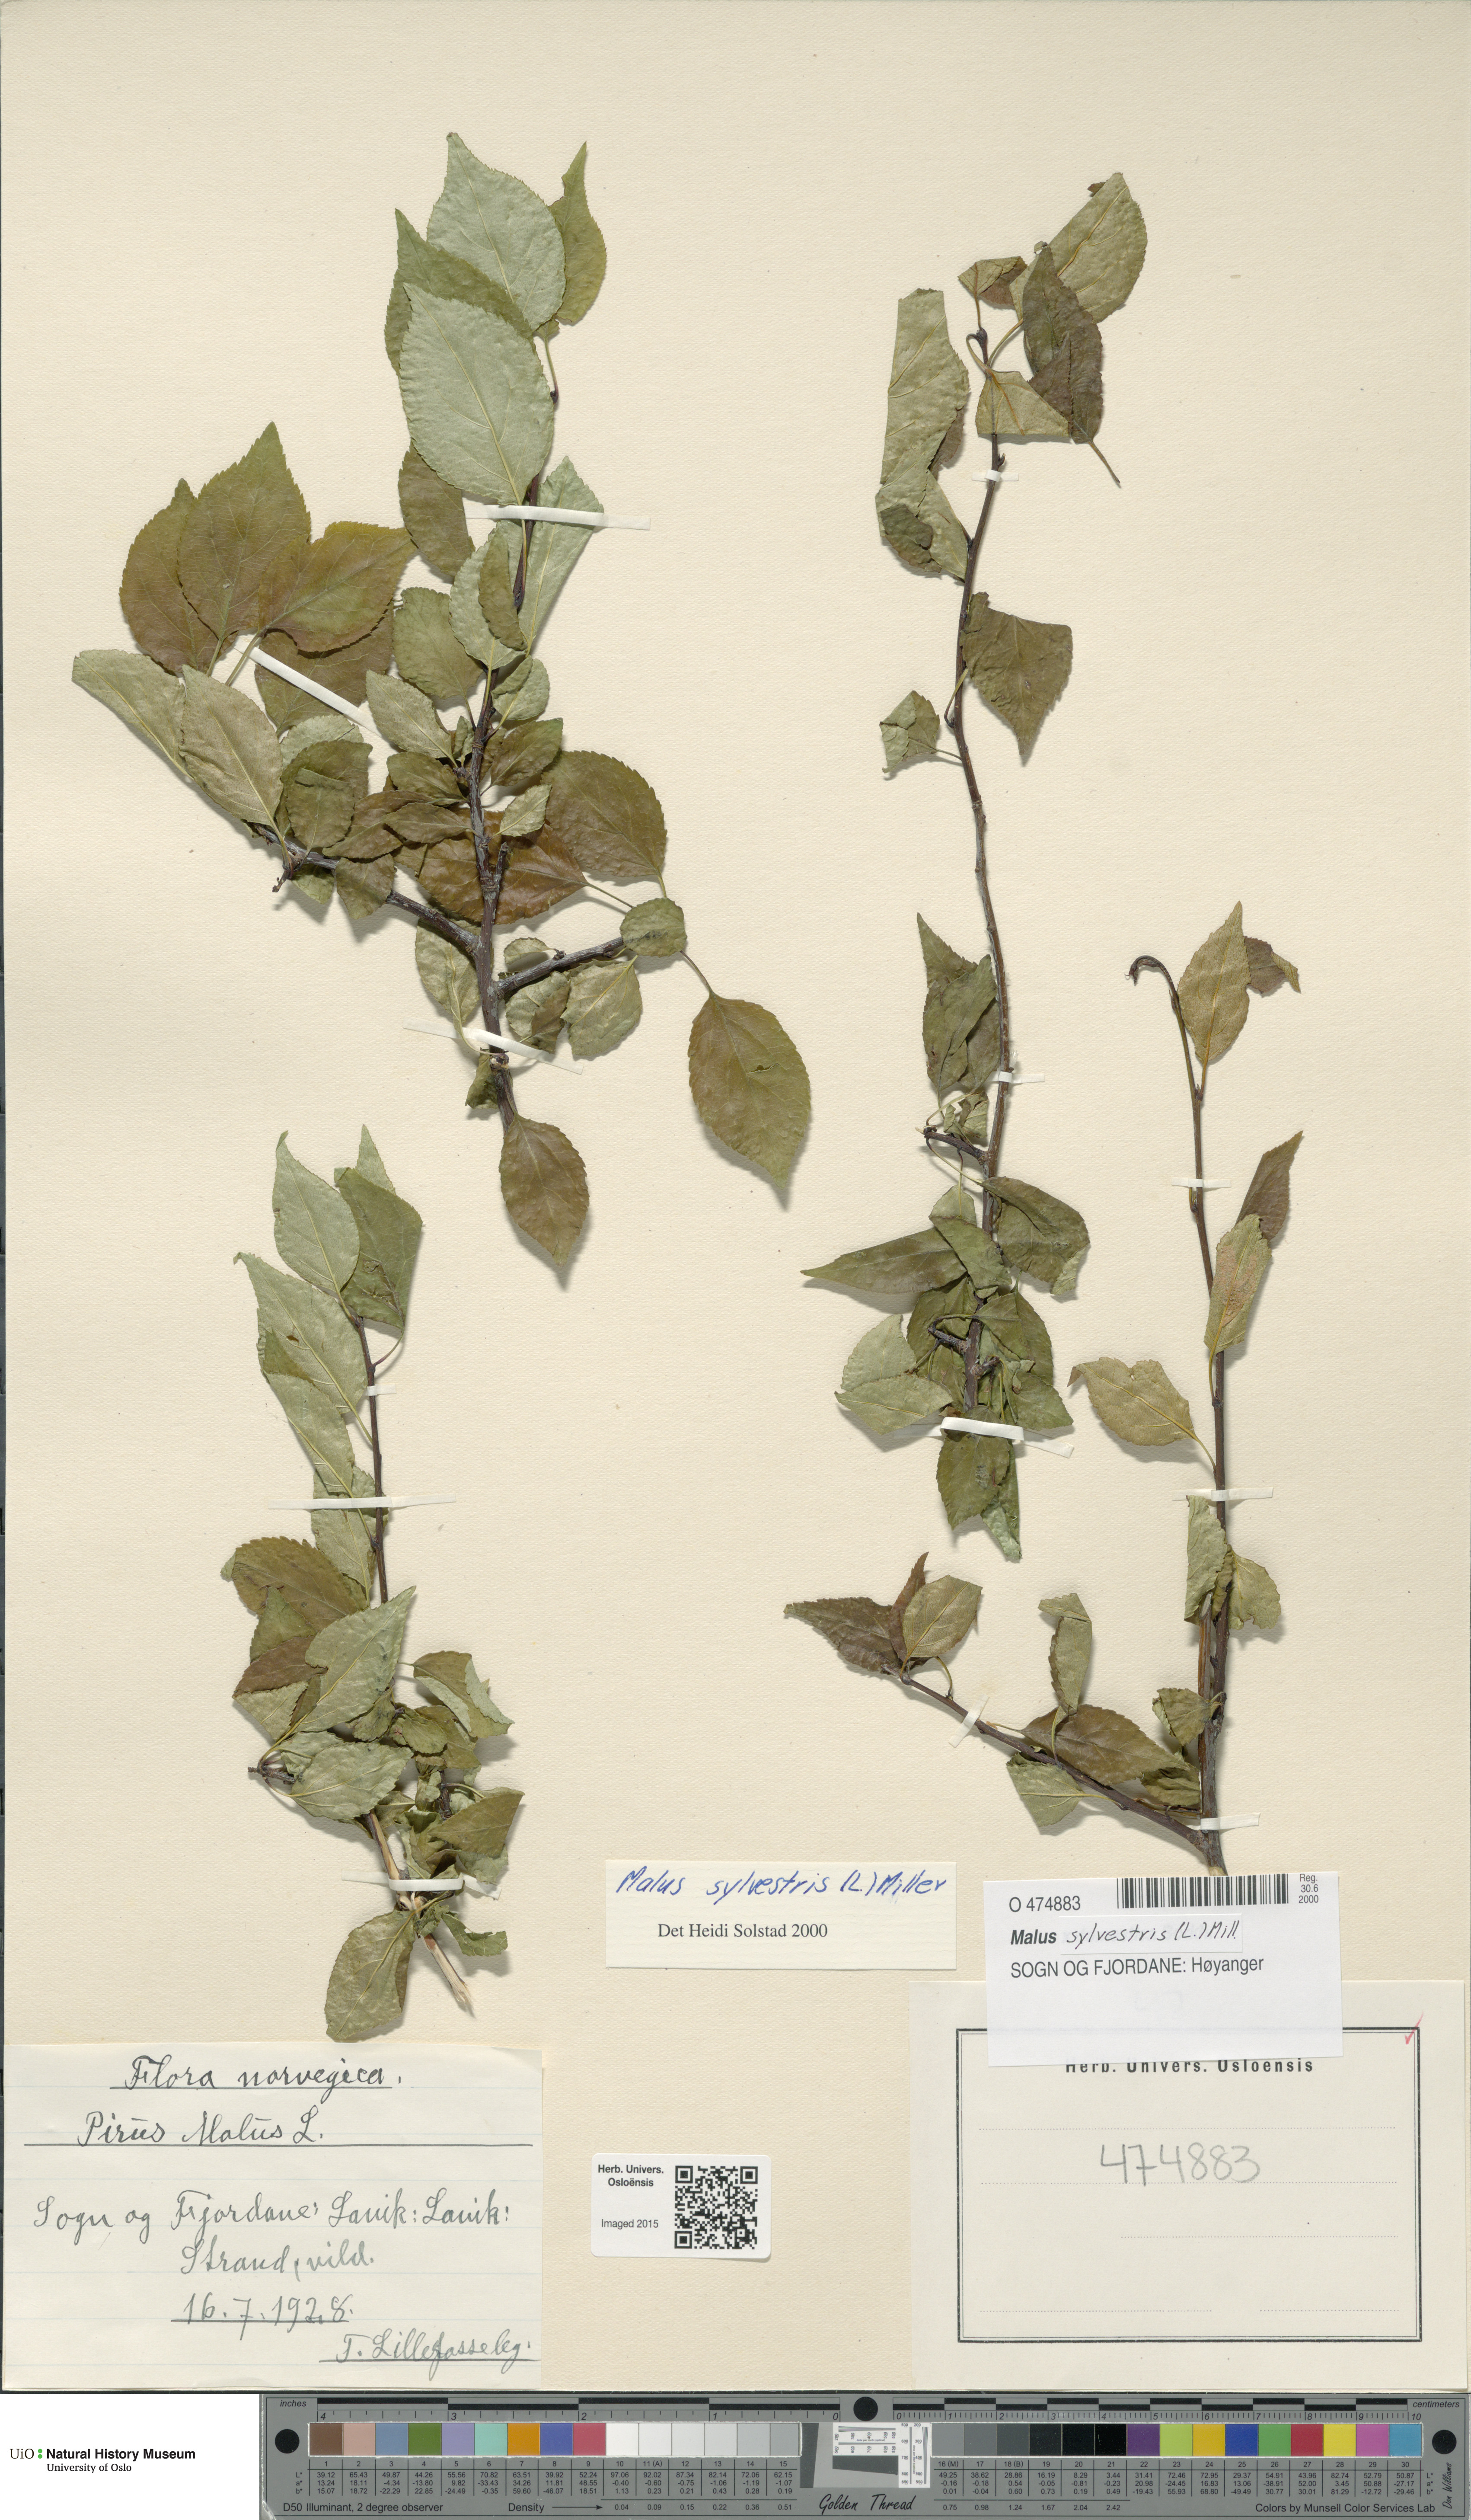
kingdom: Plantae
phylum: Tracheophyta
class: Magnoliopsida
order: Rosales
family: Rosaceae
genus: Malus
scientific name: Malus sylvestris
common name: Crab apple
